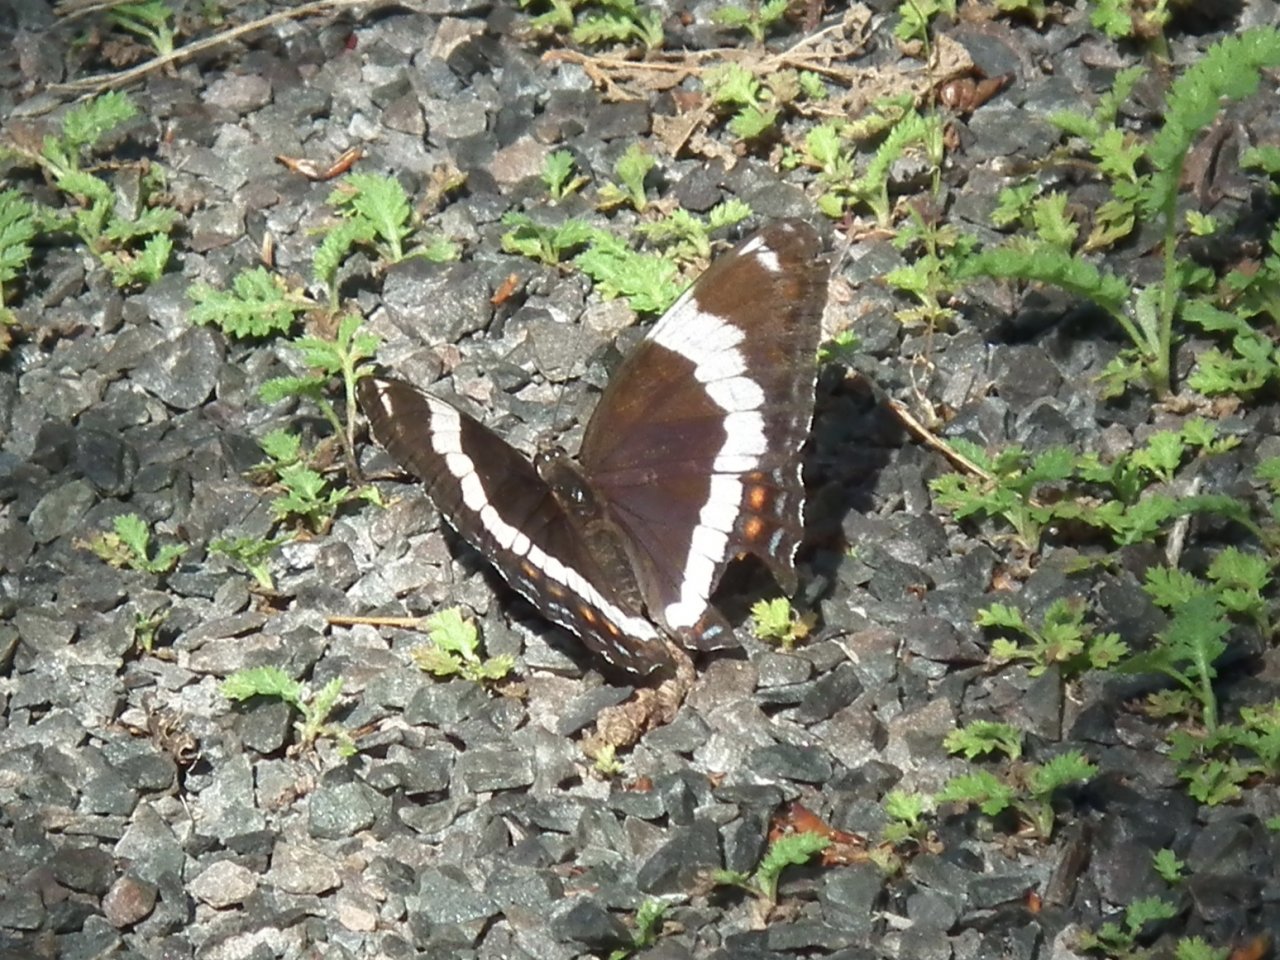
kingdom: Animalia
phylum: Arthropoda
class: Insecta
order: Lepidoptera
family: Nymphalidae
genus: Limenitis
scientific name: Limenitis arthemis
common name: Red-spotted Admiral
